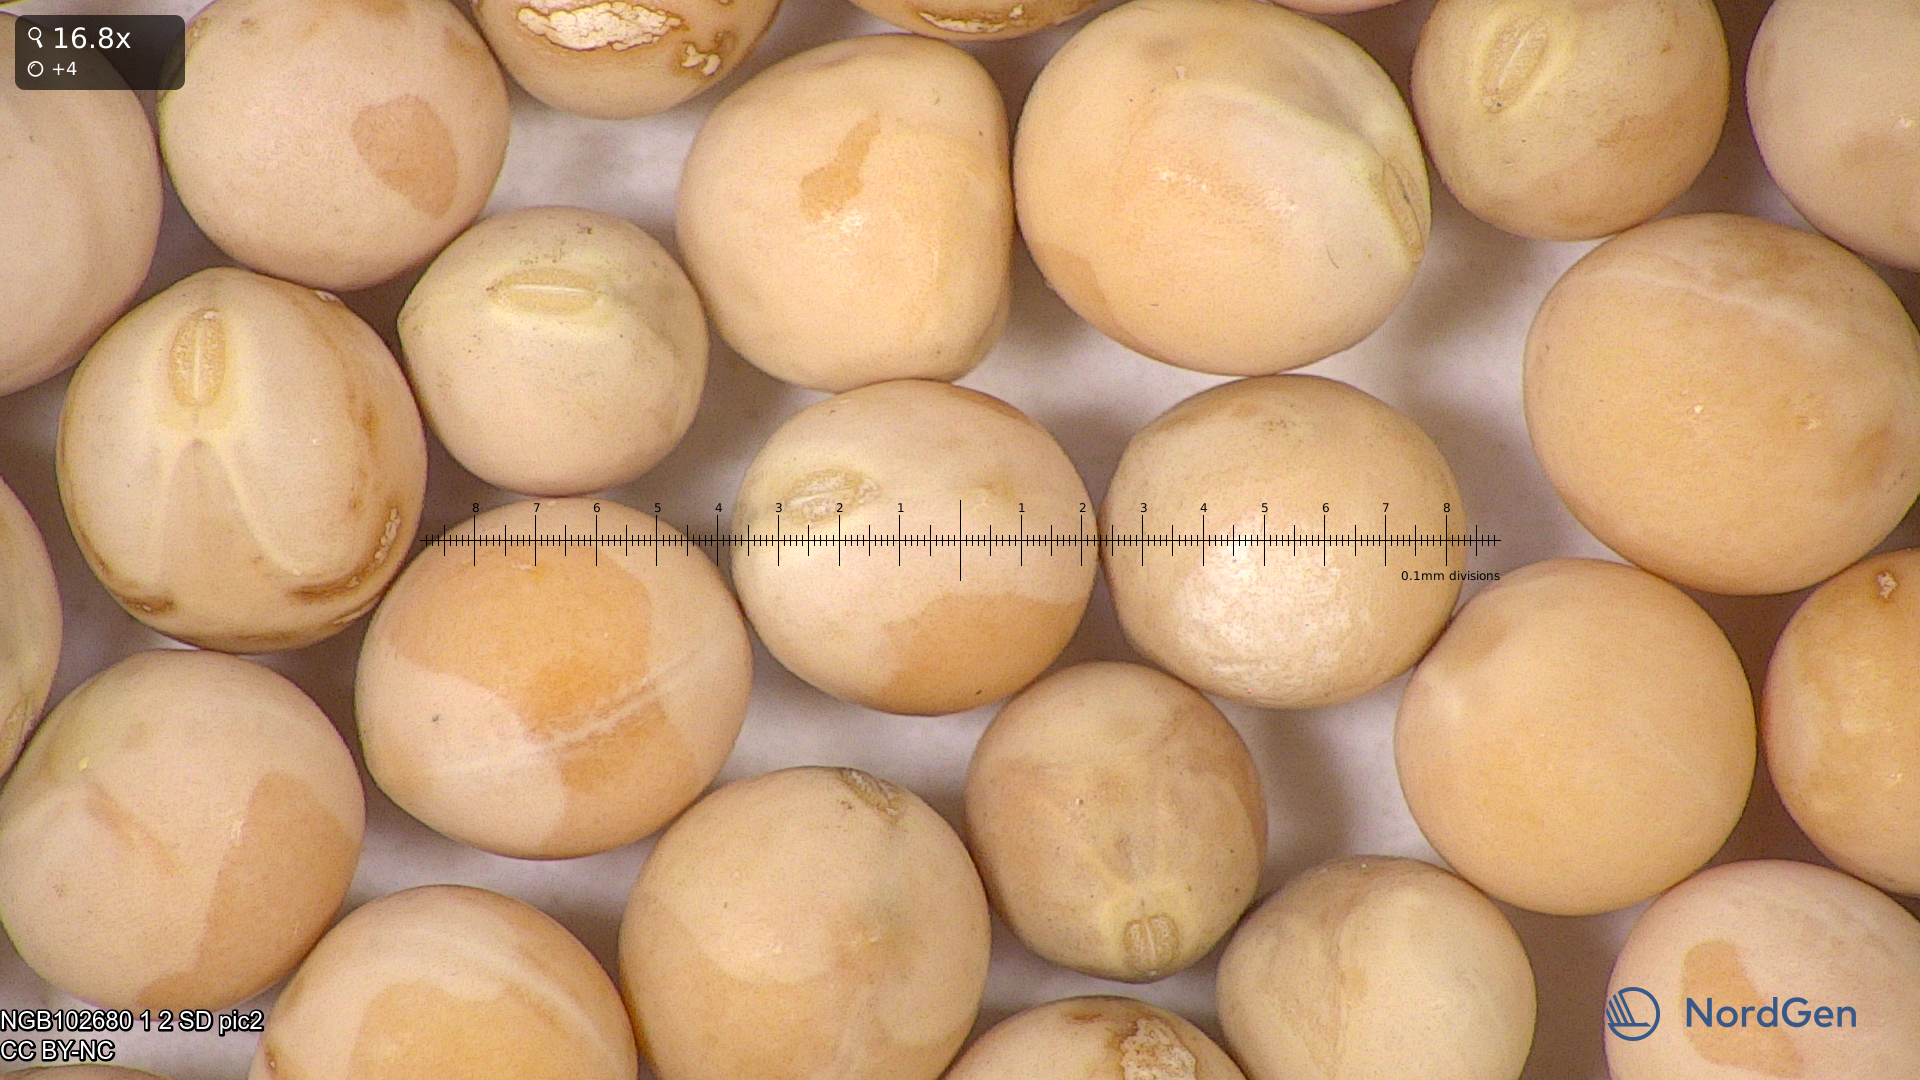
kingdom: Plantae
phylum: Tracheophyta
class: Magnoliopsida
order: Fabales
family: Fabaceae
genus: Lathyrus
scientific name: Lathyrus oleraceus
